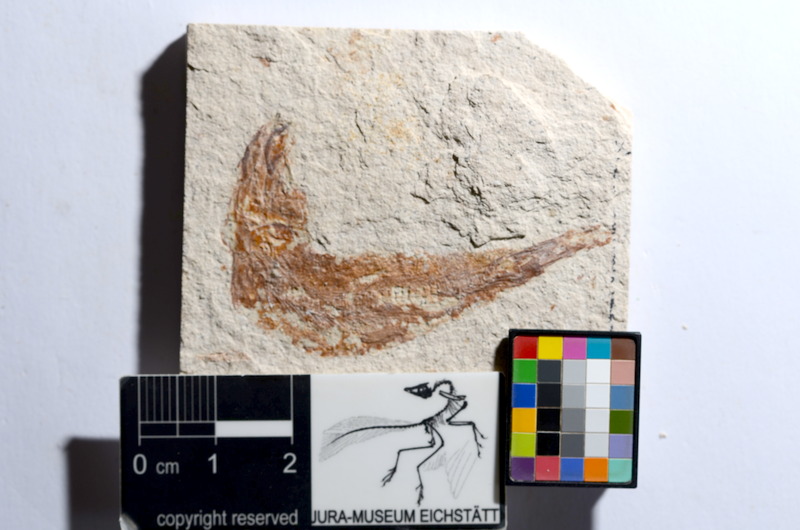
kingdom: Animalia
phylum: Chordata
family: Ascalaboidae
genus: Tharsis
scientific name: Tharsis dubius
